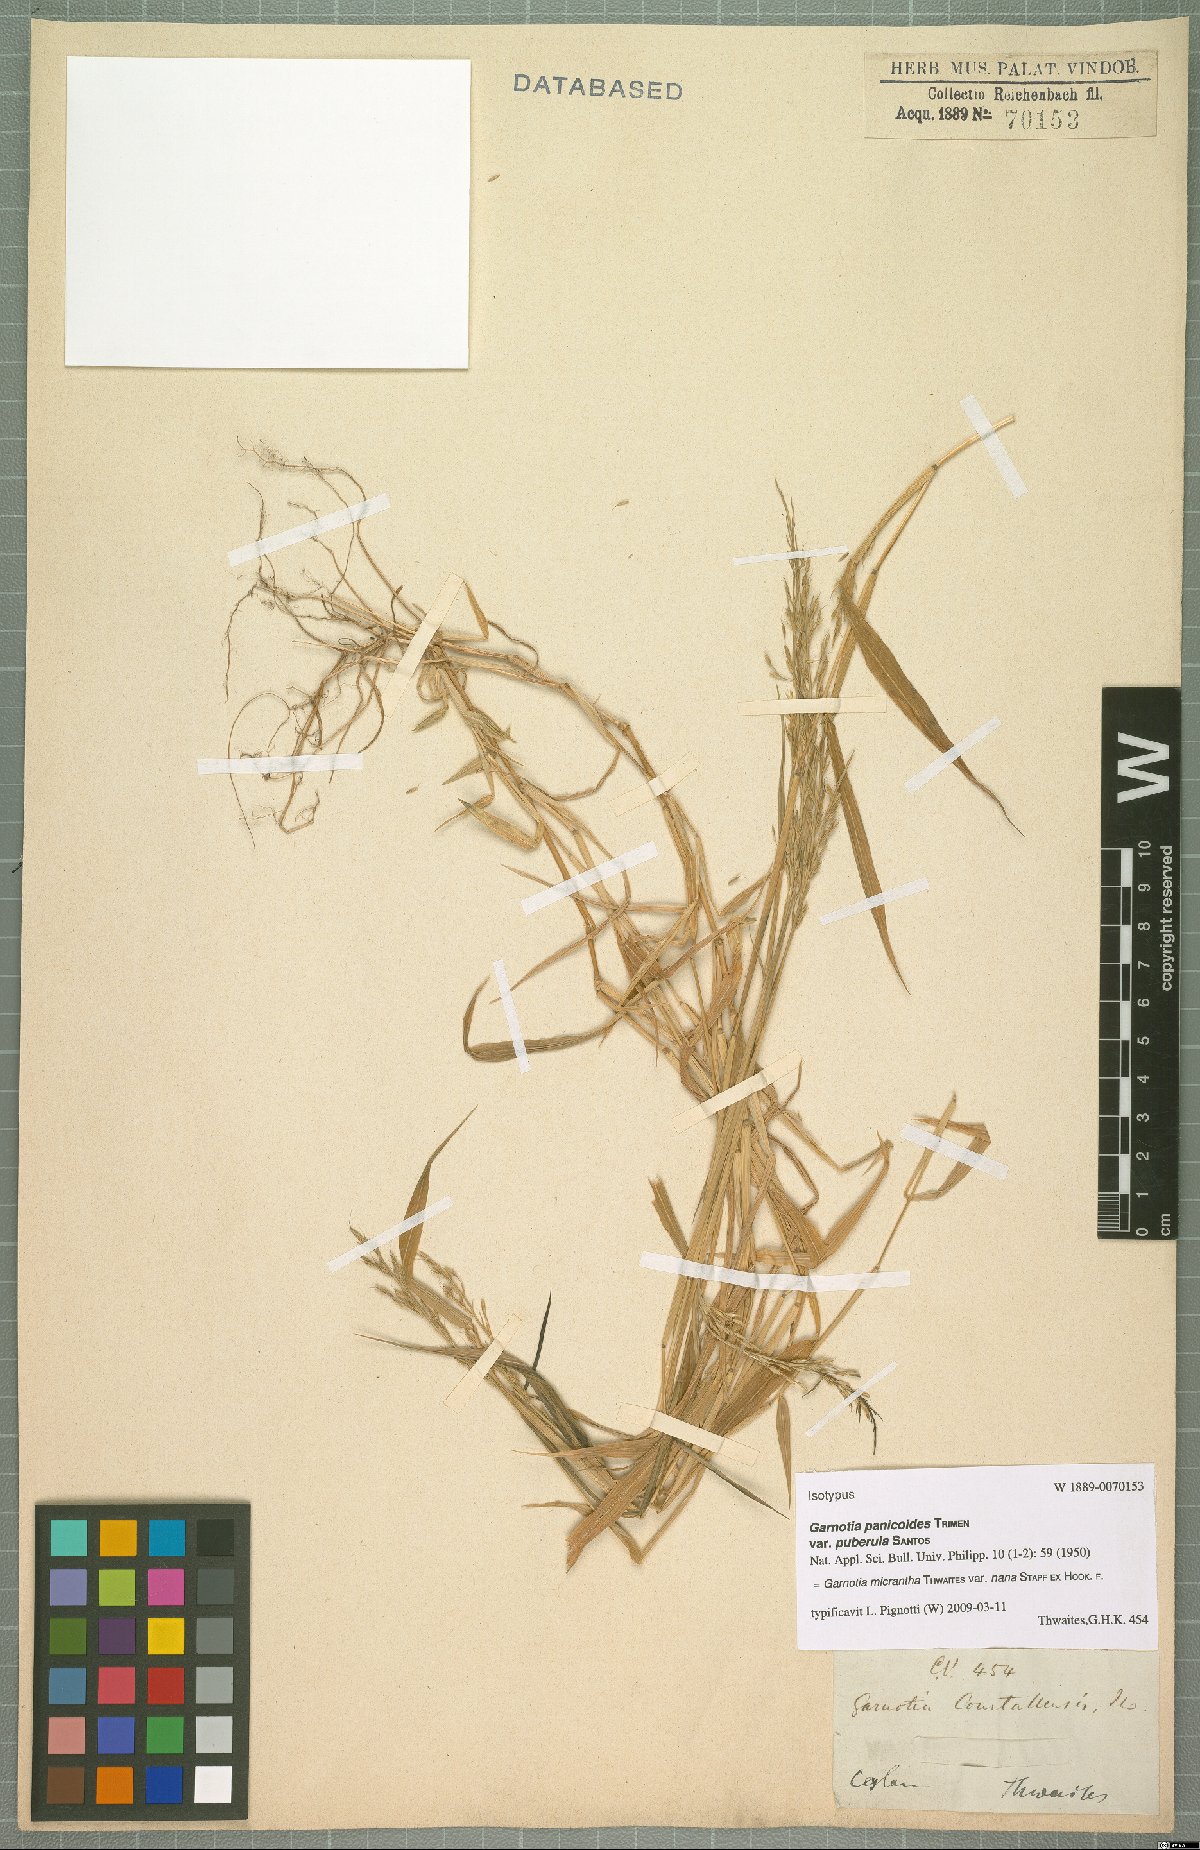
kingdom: Plantae
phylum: Tracheophyta
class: Liliopsida
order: Poales
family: Poaceae
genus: Garnotia
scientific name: Garnotia micrantha
